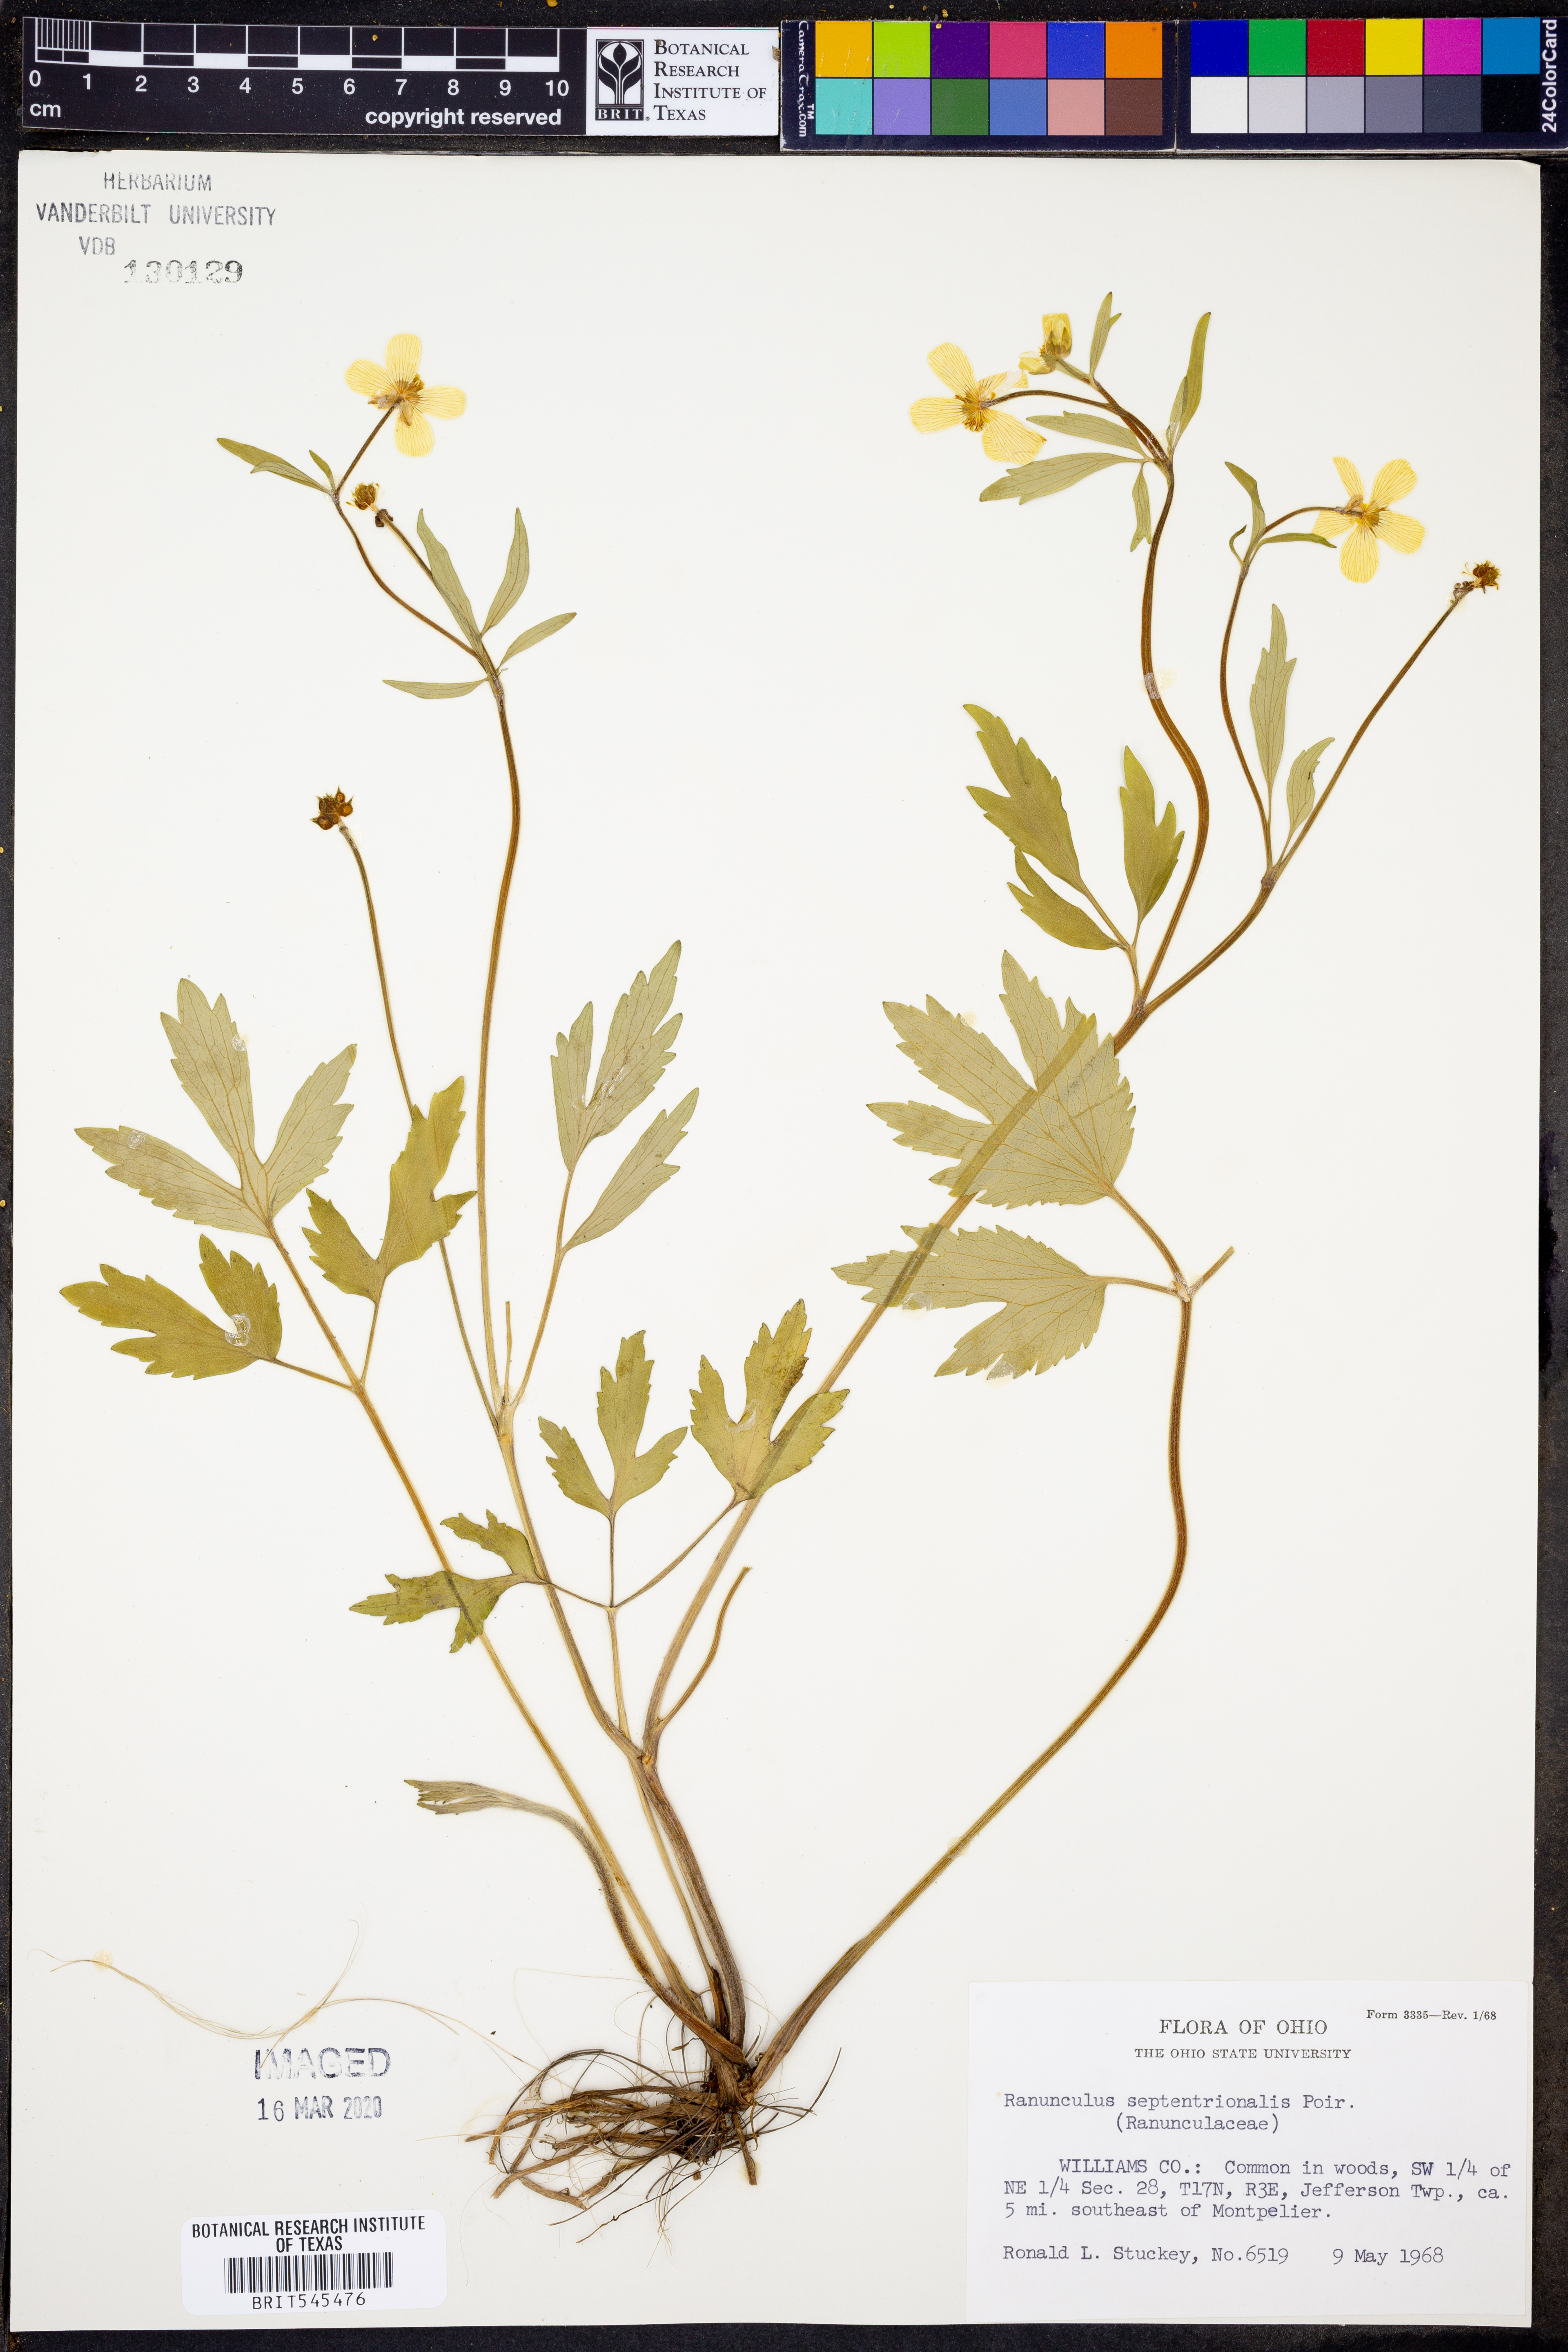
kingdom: Plantae
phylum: Tracheophyta
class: Magnoliopsida
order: Ranunculales
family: Ranunculaceae
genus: Ranunculus
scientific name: Ranunculus hispidus
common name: Bristly buttercup
